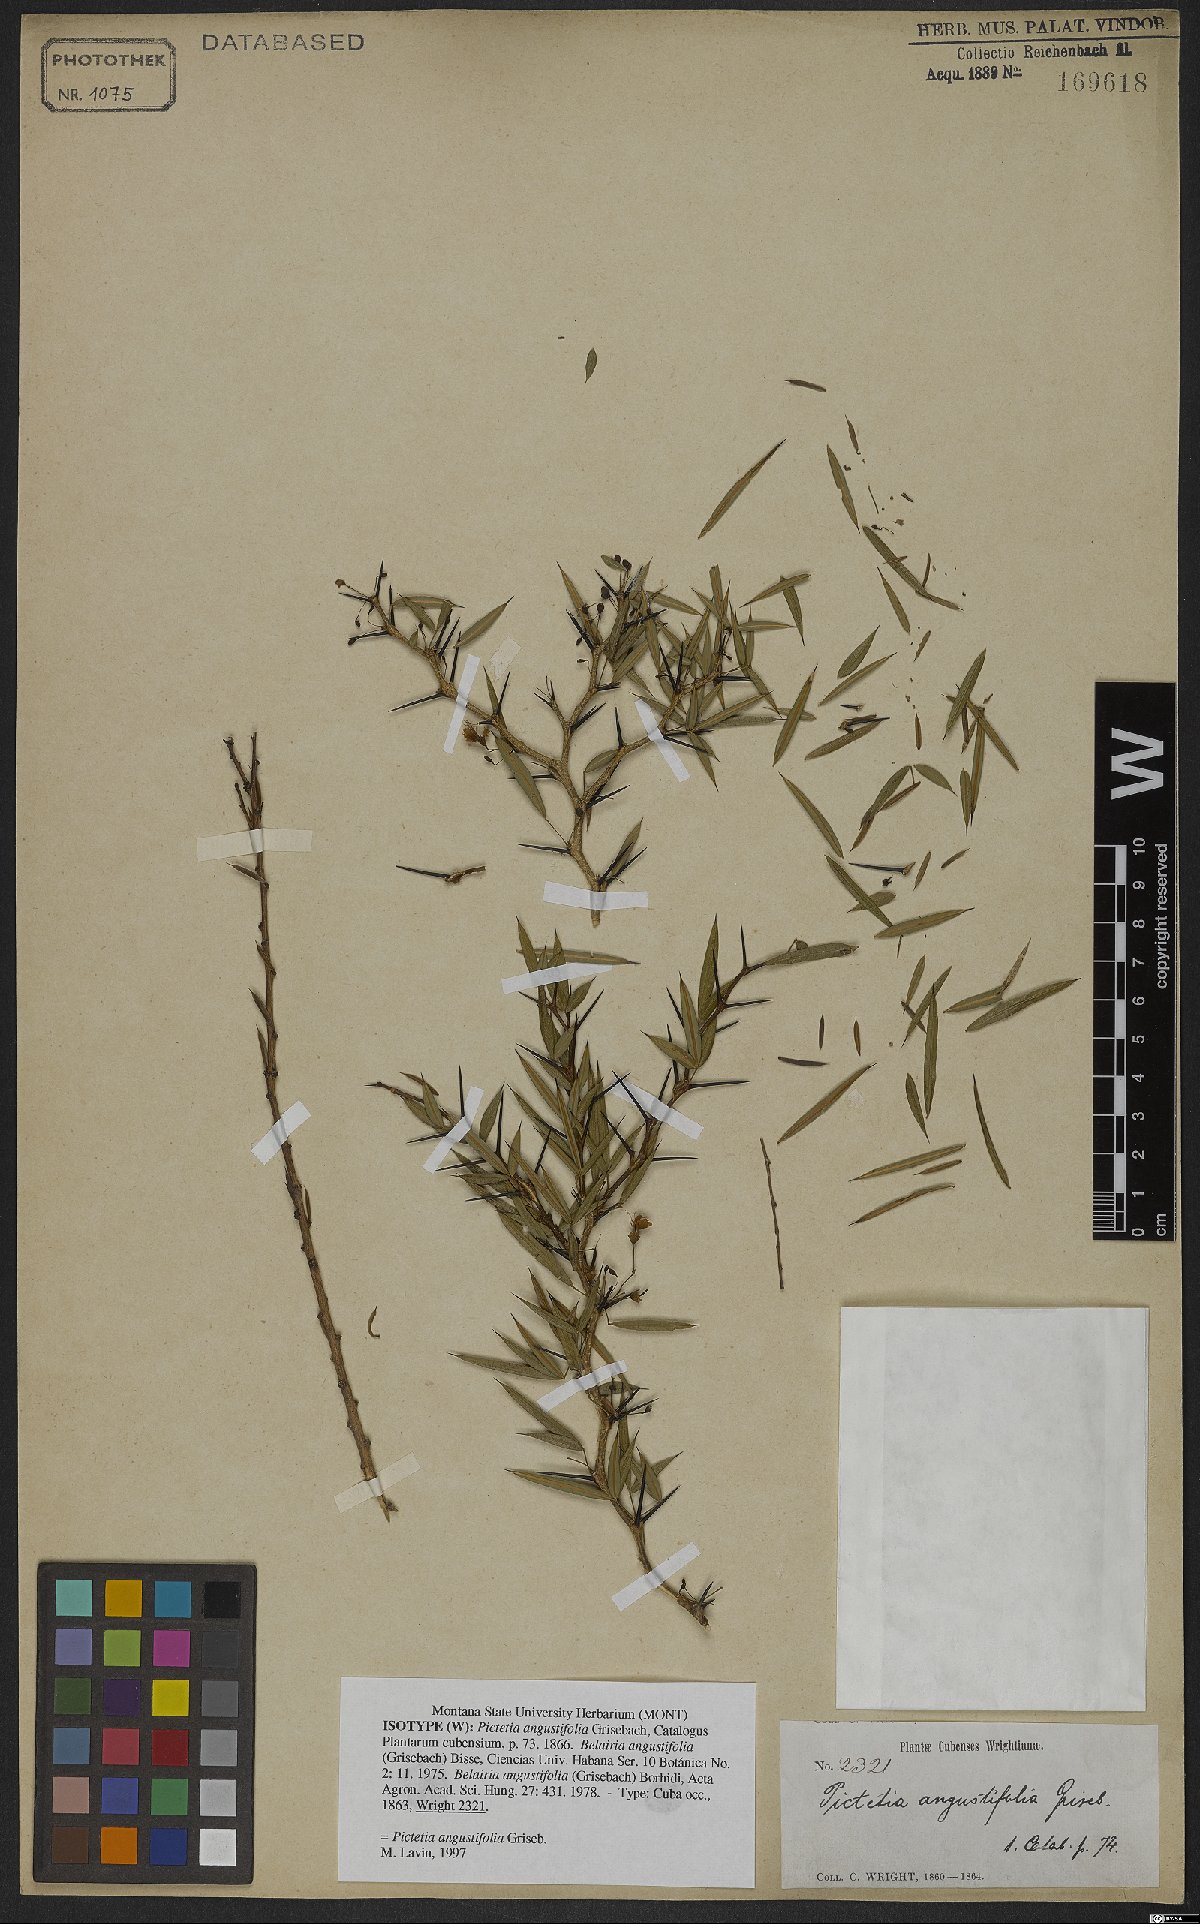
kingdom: Plantae
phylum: Tracheophyta
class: Magnoliopsida
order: Fabales
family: Fabaceae
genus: Pictetia
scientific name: Pictetia angustifolia
